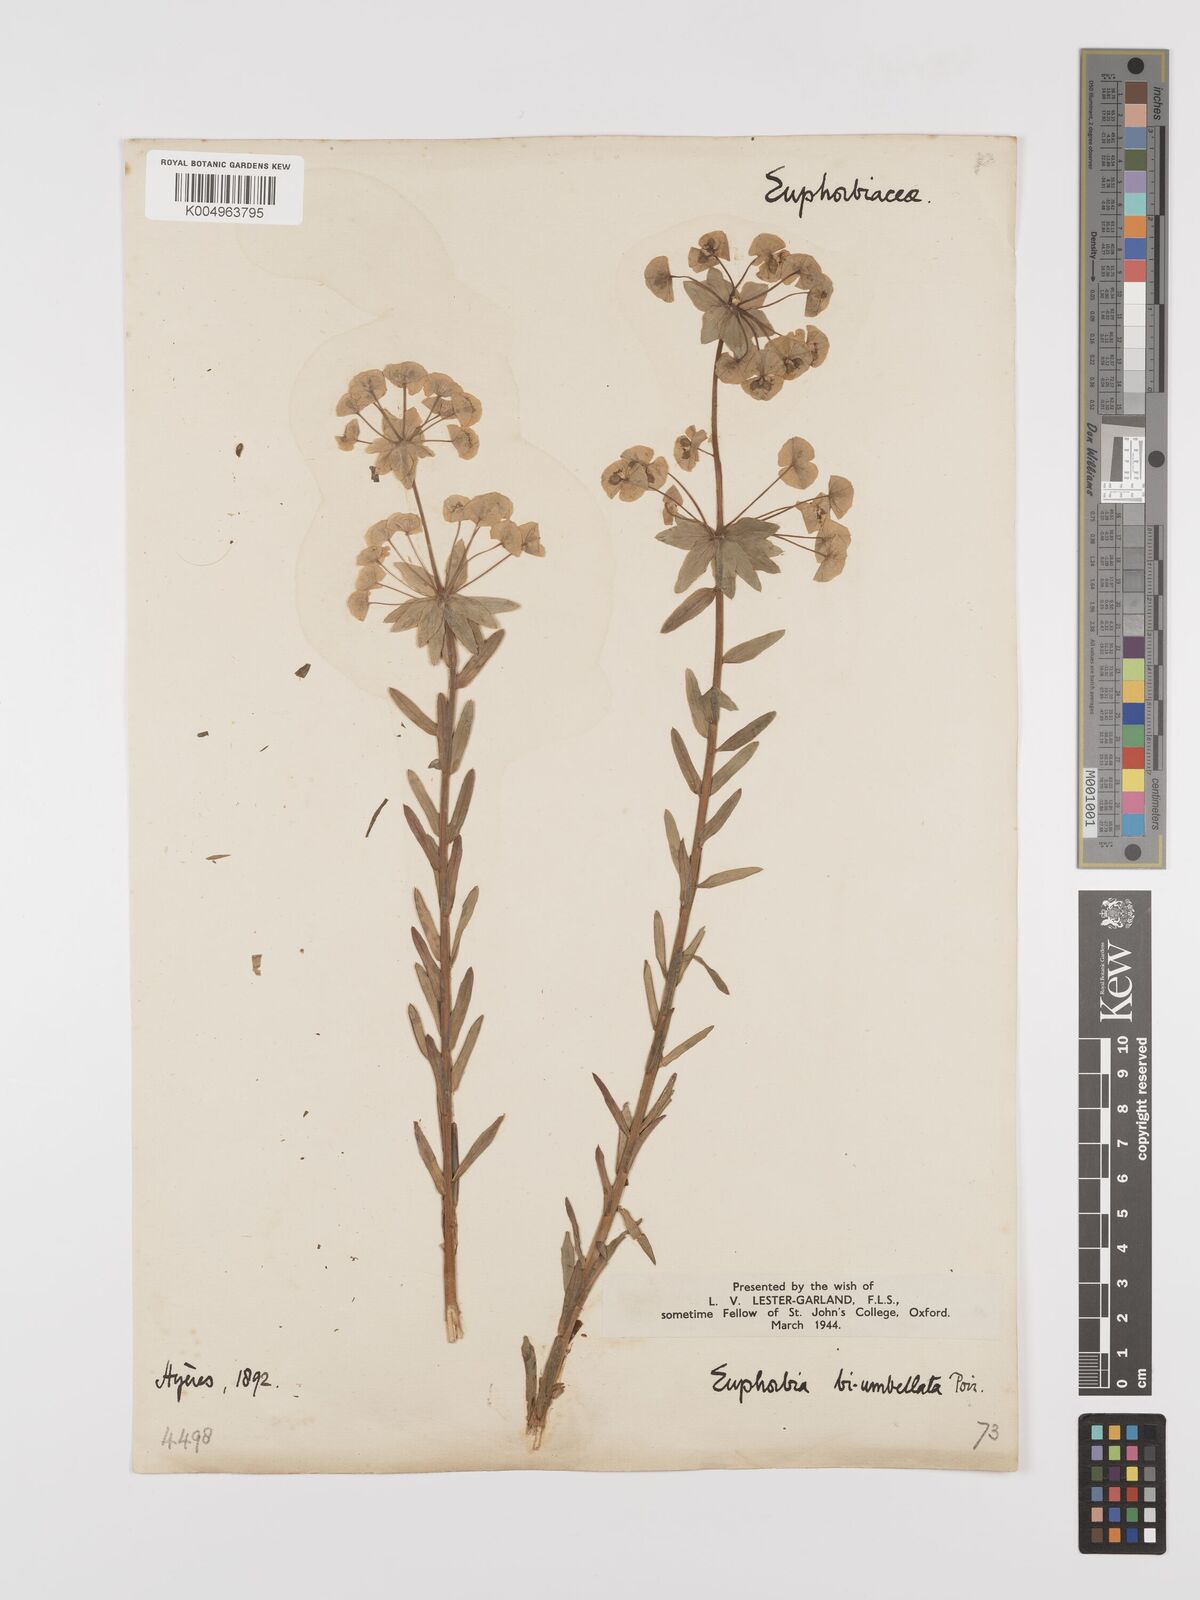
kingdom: Plantae
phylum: Tracheophyta
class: Magnoliopsida
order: Malpighiales
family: Euphorbiaceae
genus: Euphorbia
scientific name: Euphorbia biumbellata
